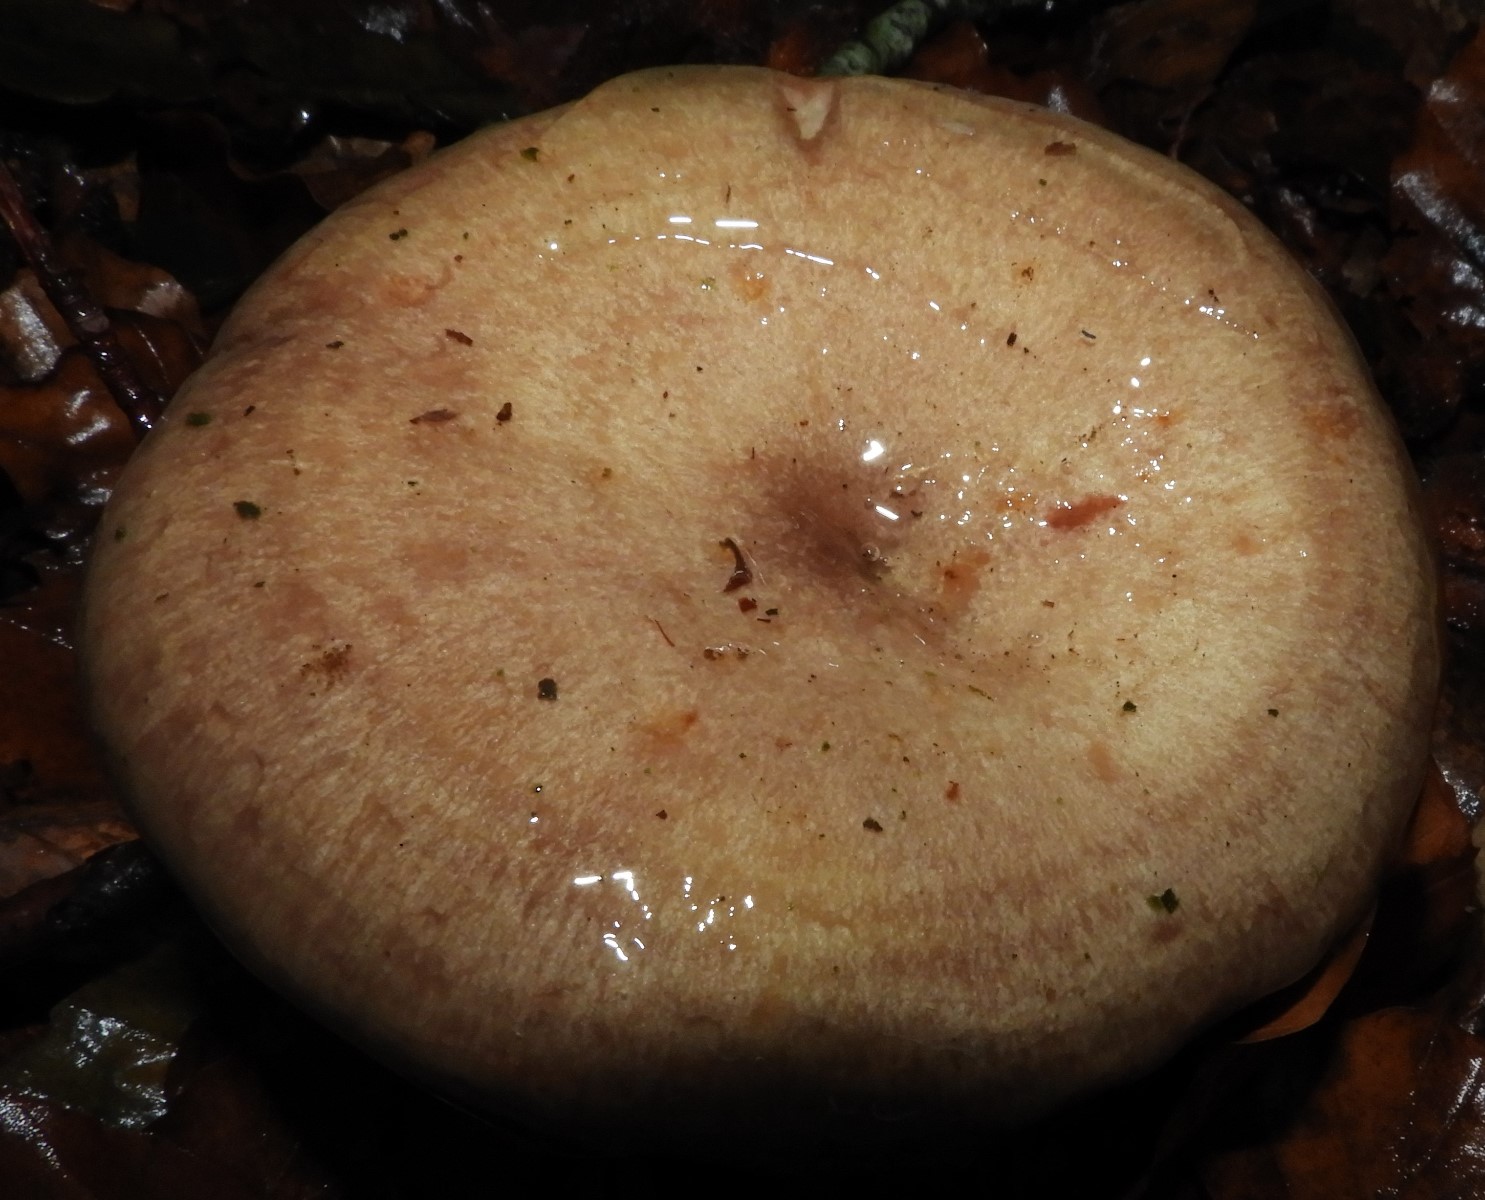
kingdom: Fungi
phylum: Basidiomycota
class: Agaricomycetes
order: Russulales
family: Russulaceae
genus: Lactarius
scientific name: Lactarius blennius
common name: dråbeplettet mælkehat
